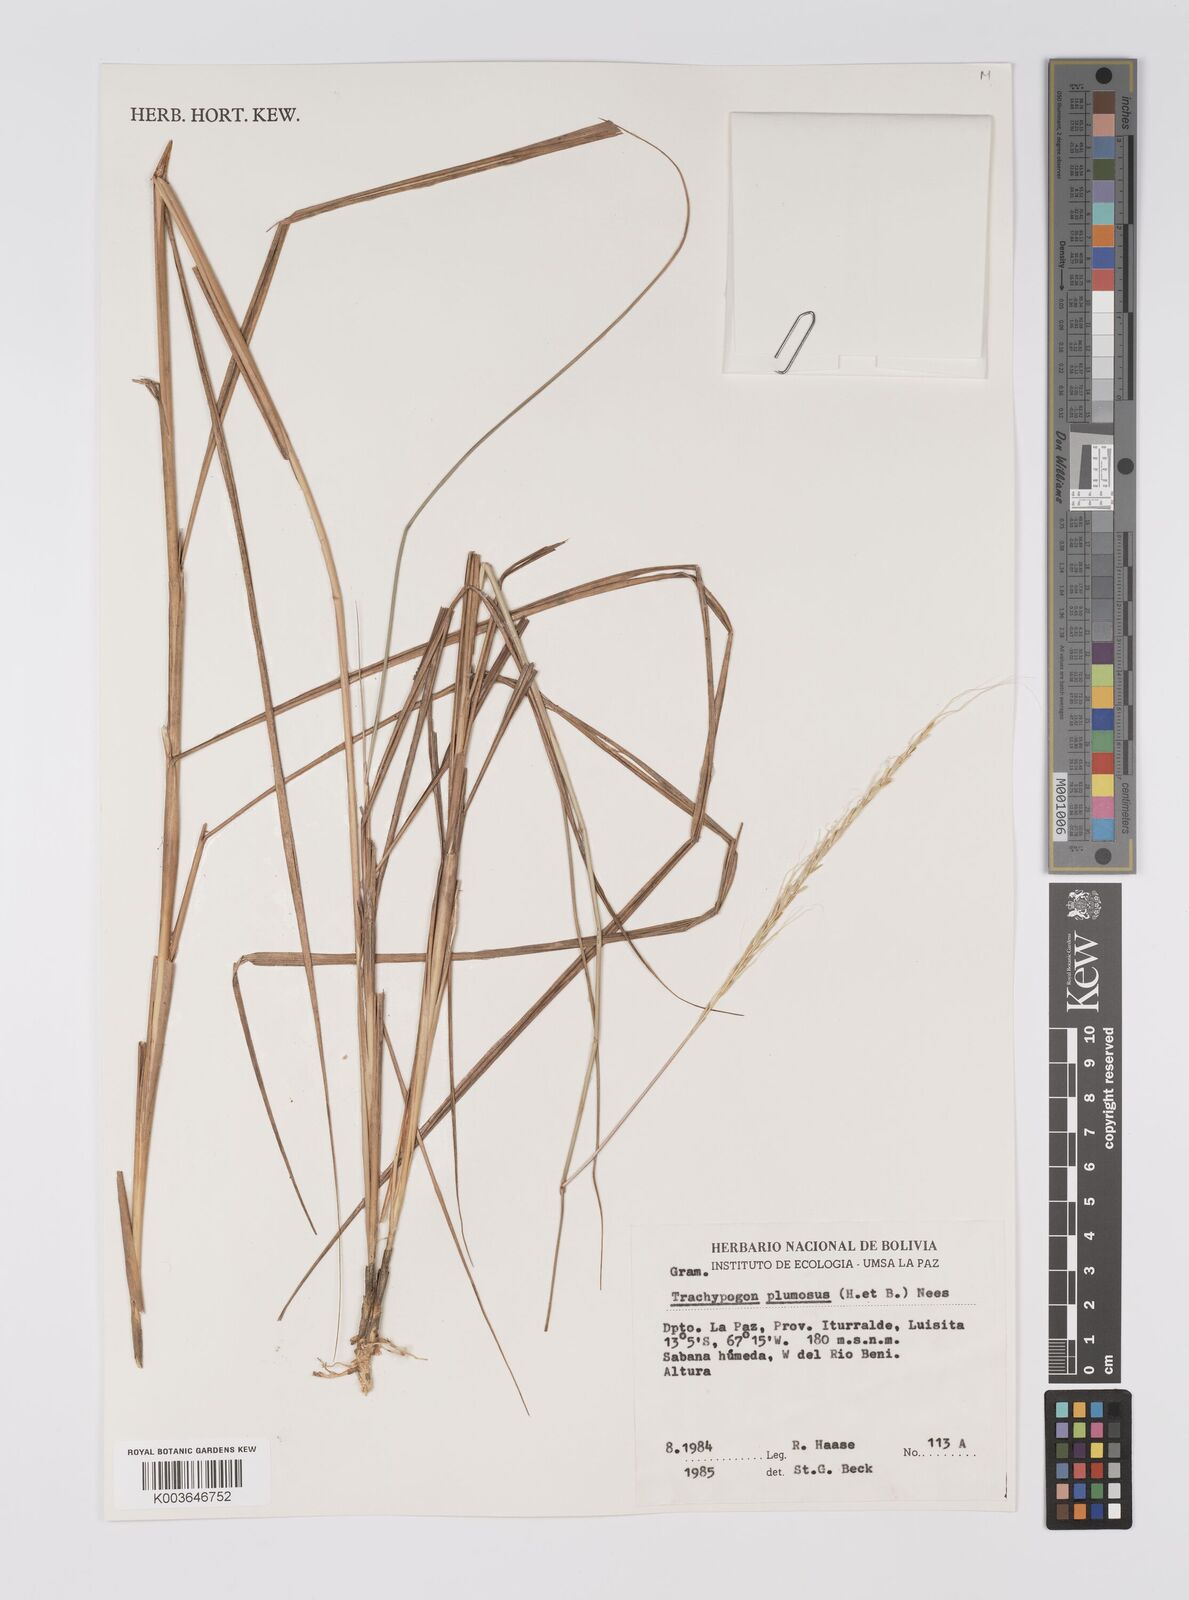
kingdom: Plantae
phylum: Tracheophyta
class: Liliopsida
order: Poales
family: Poaceae
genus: Trachypogon
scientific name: Trachypogon spicatus
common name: Crinkle-awn
